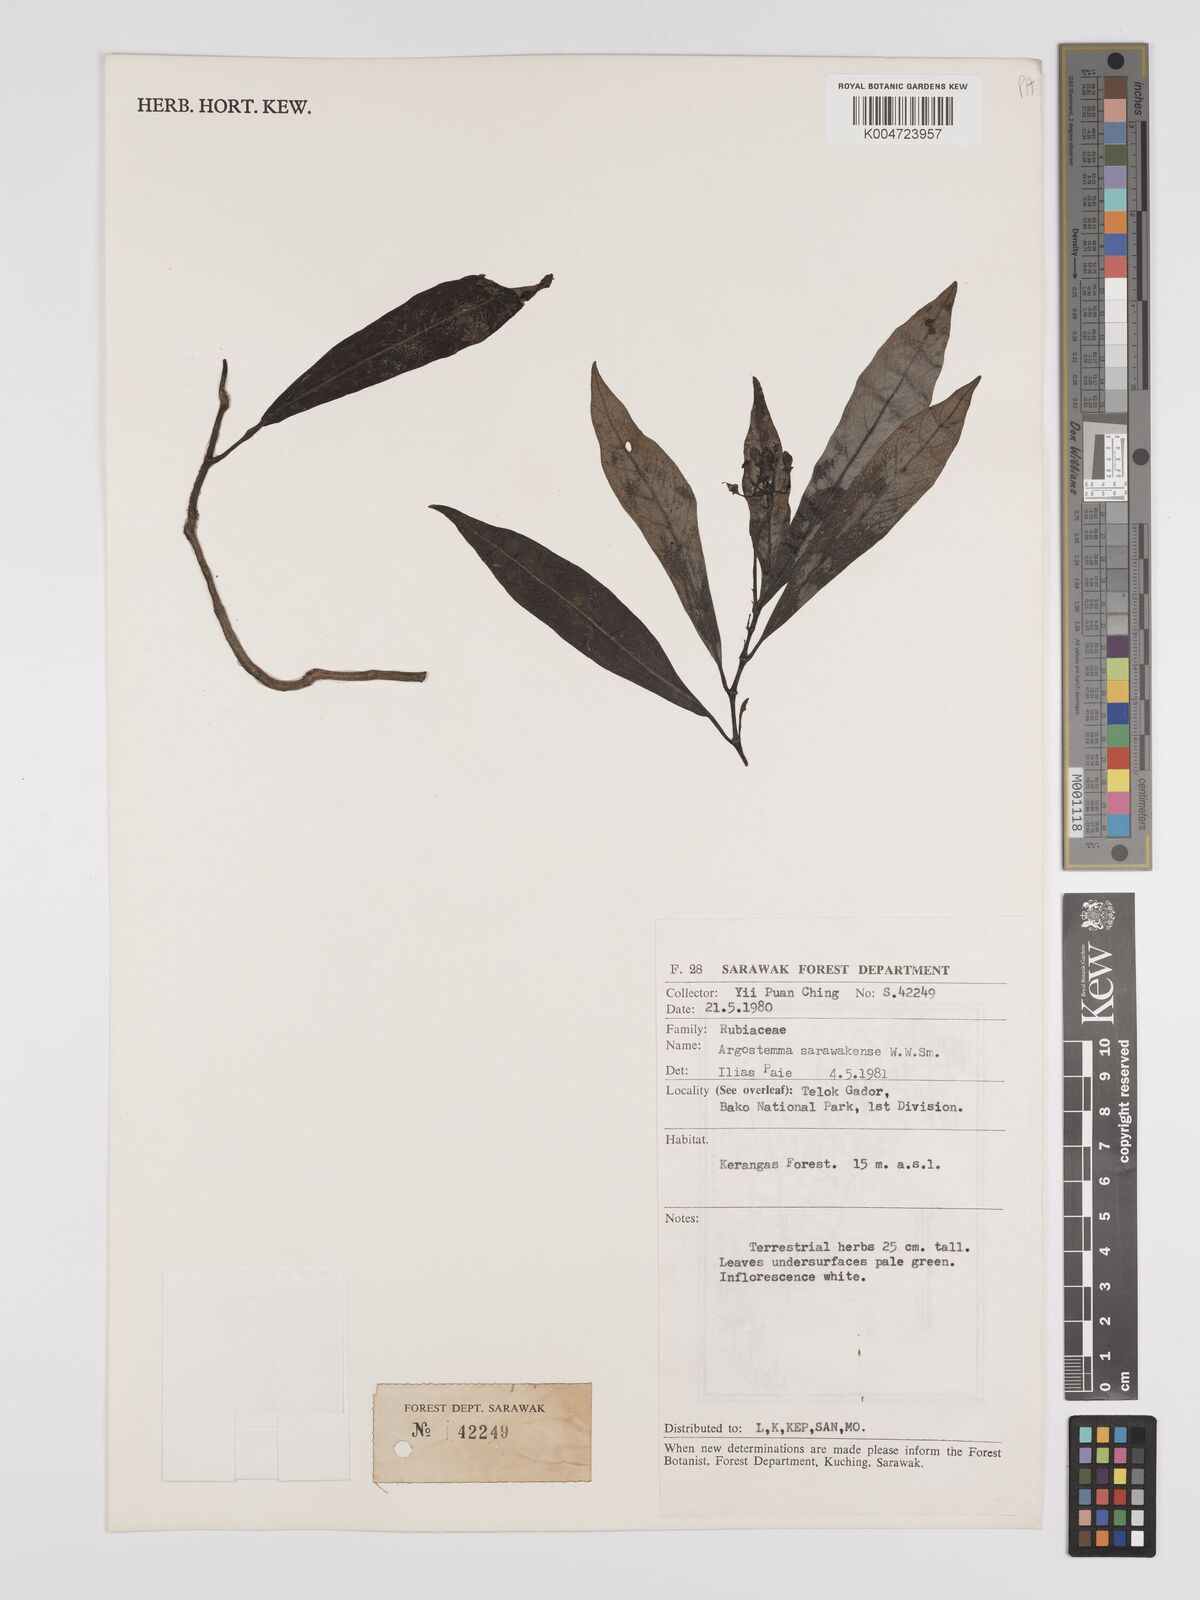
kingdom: Plantae
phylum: Tracheophyta
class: Magnoliopsida
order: Gentianales
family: Rubiaceae
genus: Argostemma
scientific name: Argostemma havilandii
